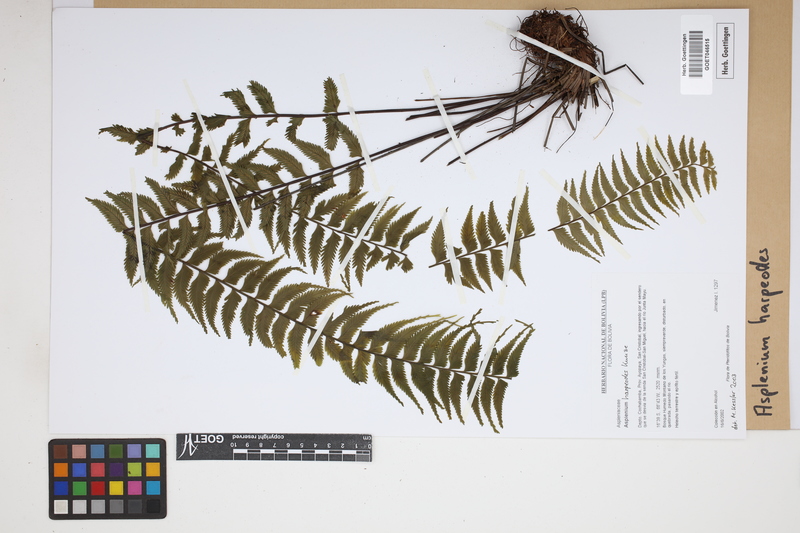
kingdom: Plantae
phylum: Tracheophyta
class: Polypodiopsida
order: Polypodiales
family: Aspleniaceae
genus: Asplenium
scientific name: Asplenium harpeodes
